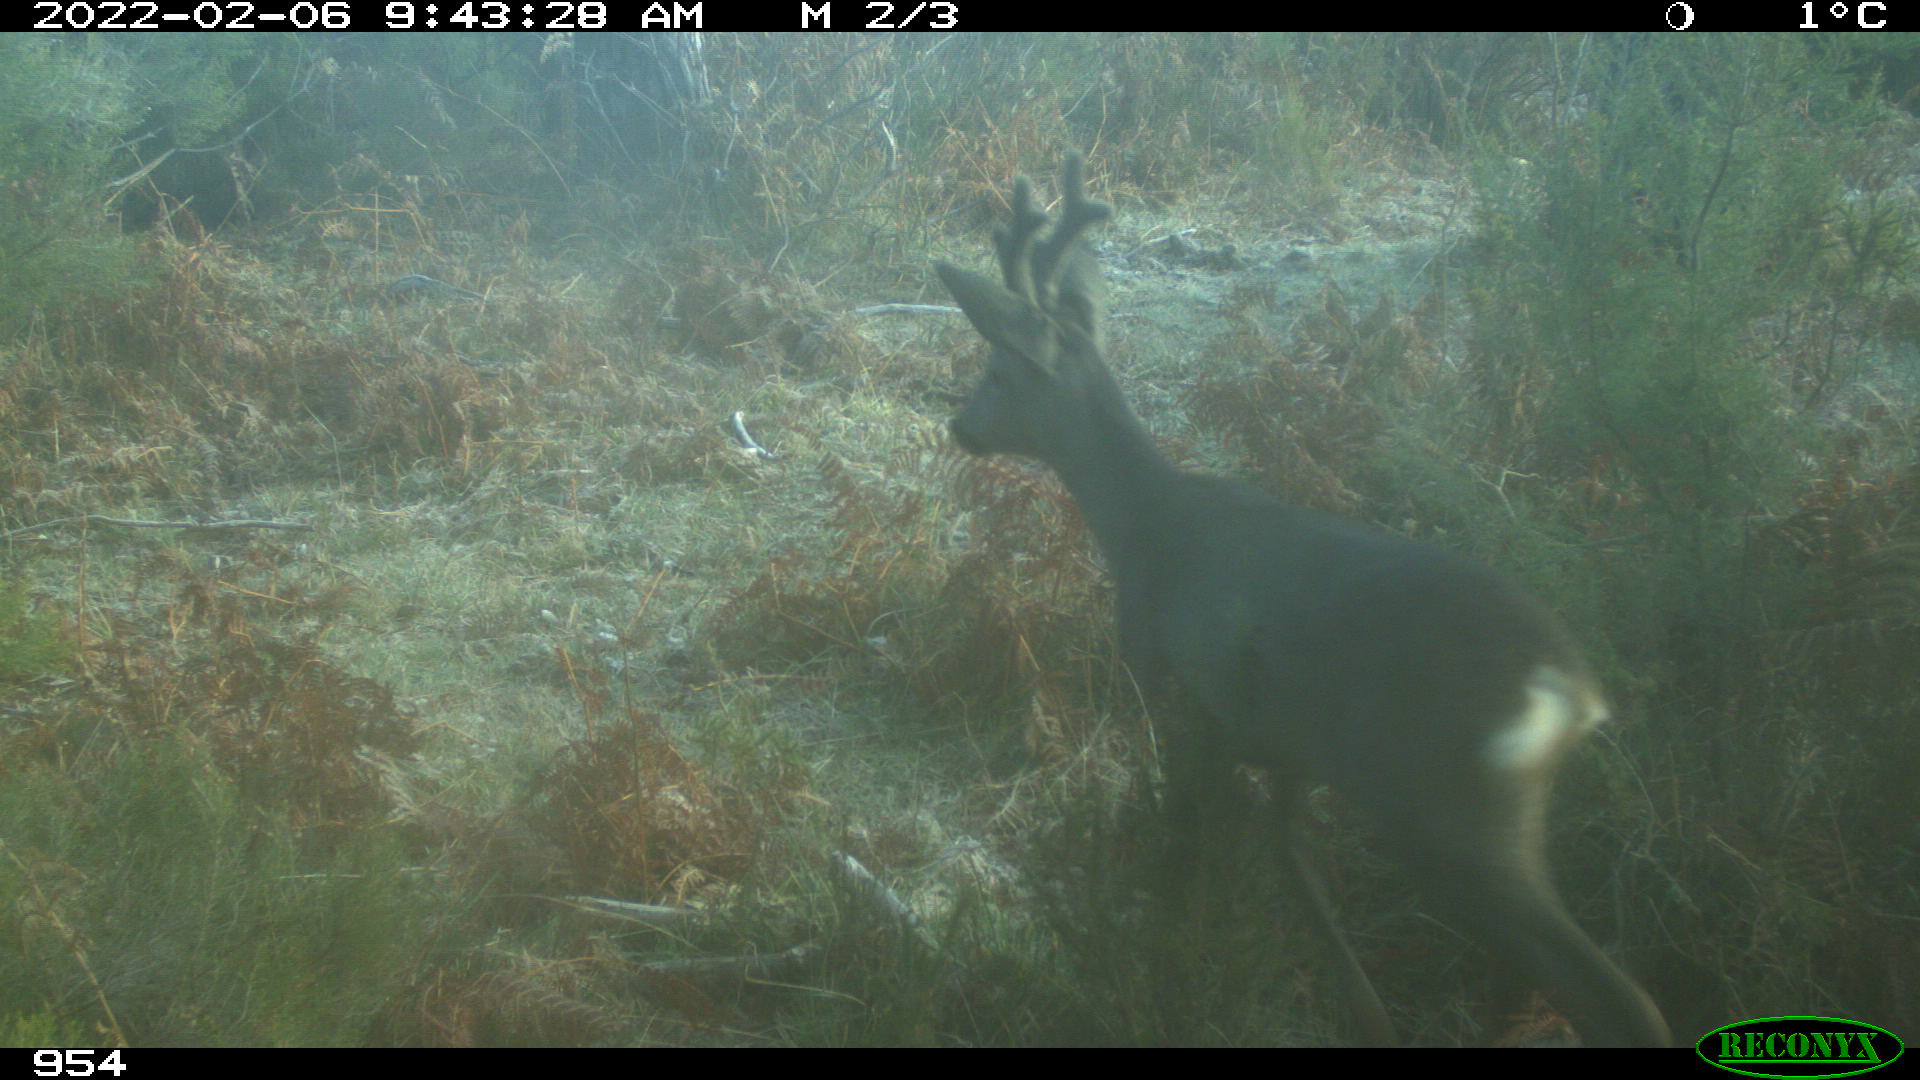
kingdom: Animalia
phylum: Chordata
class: Mammalia
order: Artiodactyla
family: Cervidae
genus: Capreolus
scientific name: Capreolus capreolus
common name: Western roe deer
